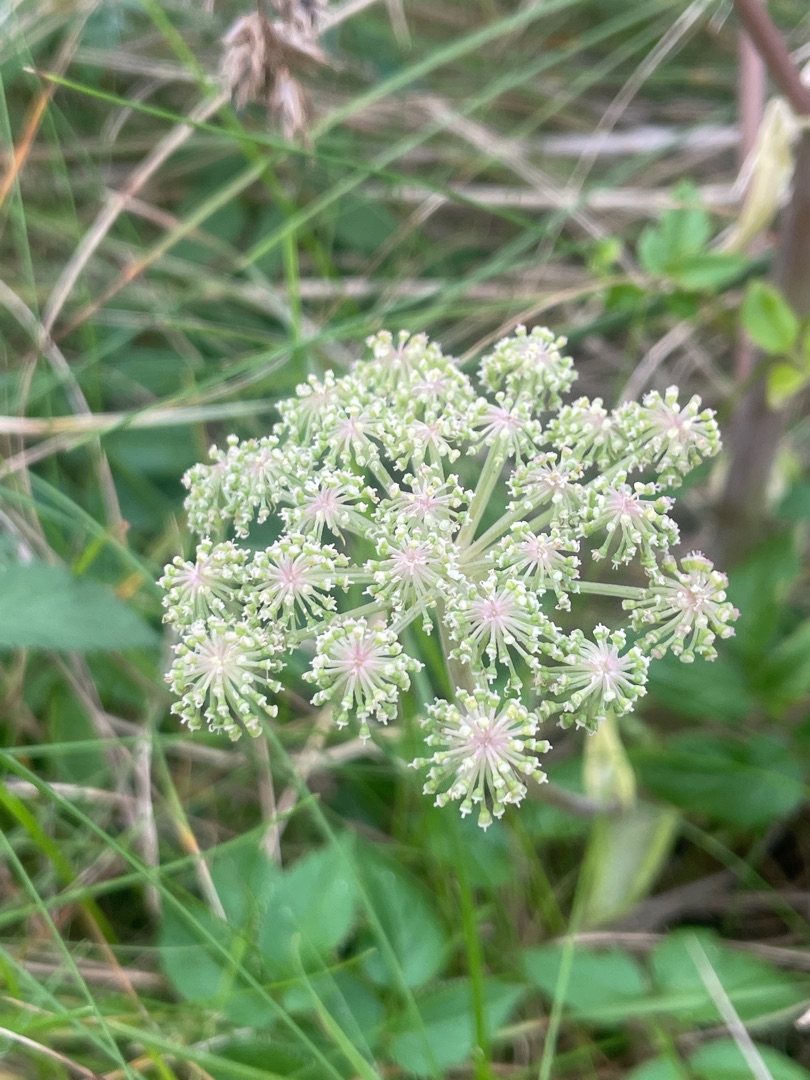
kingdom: Plantae
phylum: Tracheophyta
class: Magnoliopsida
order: Apiales
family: Apiaceae
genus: Angelica
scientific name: Angelica sylvestris
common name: Angelik
